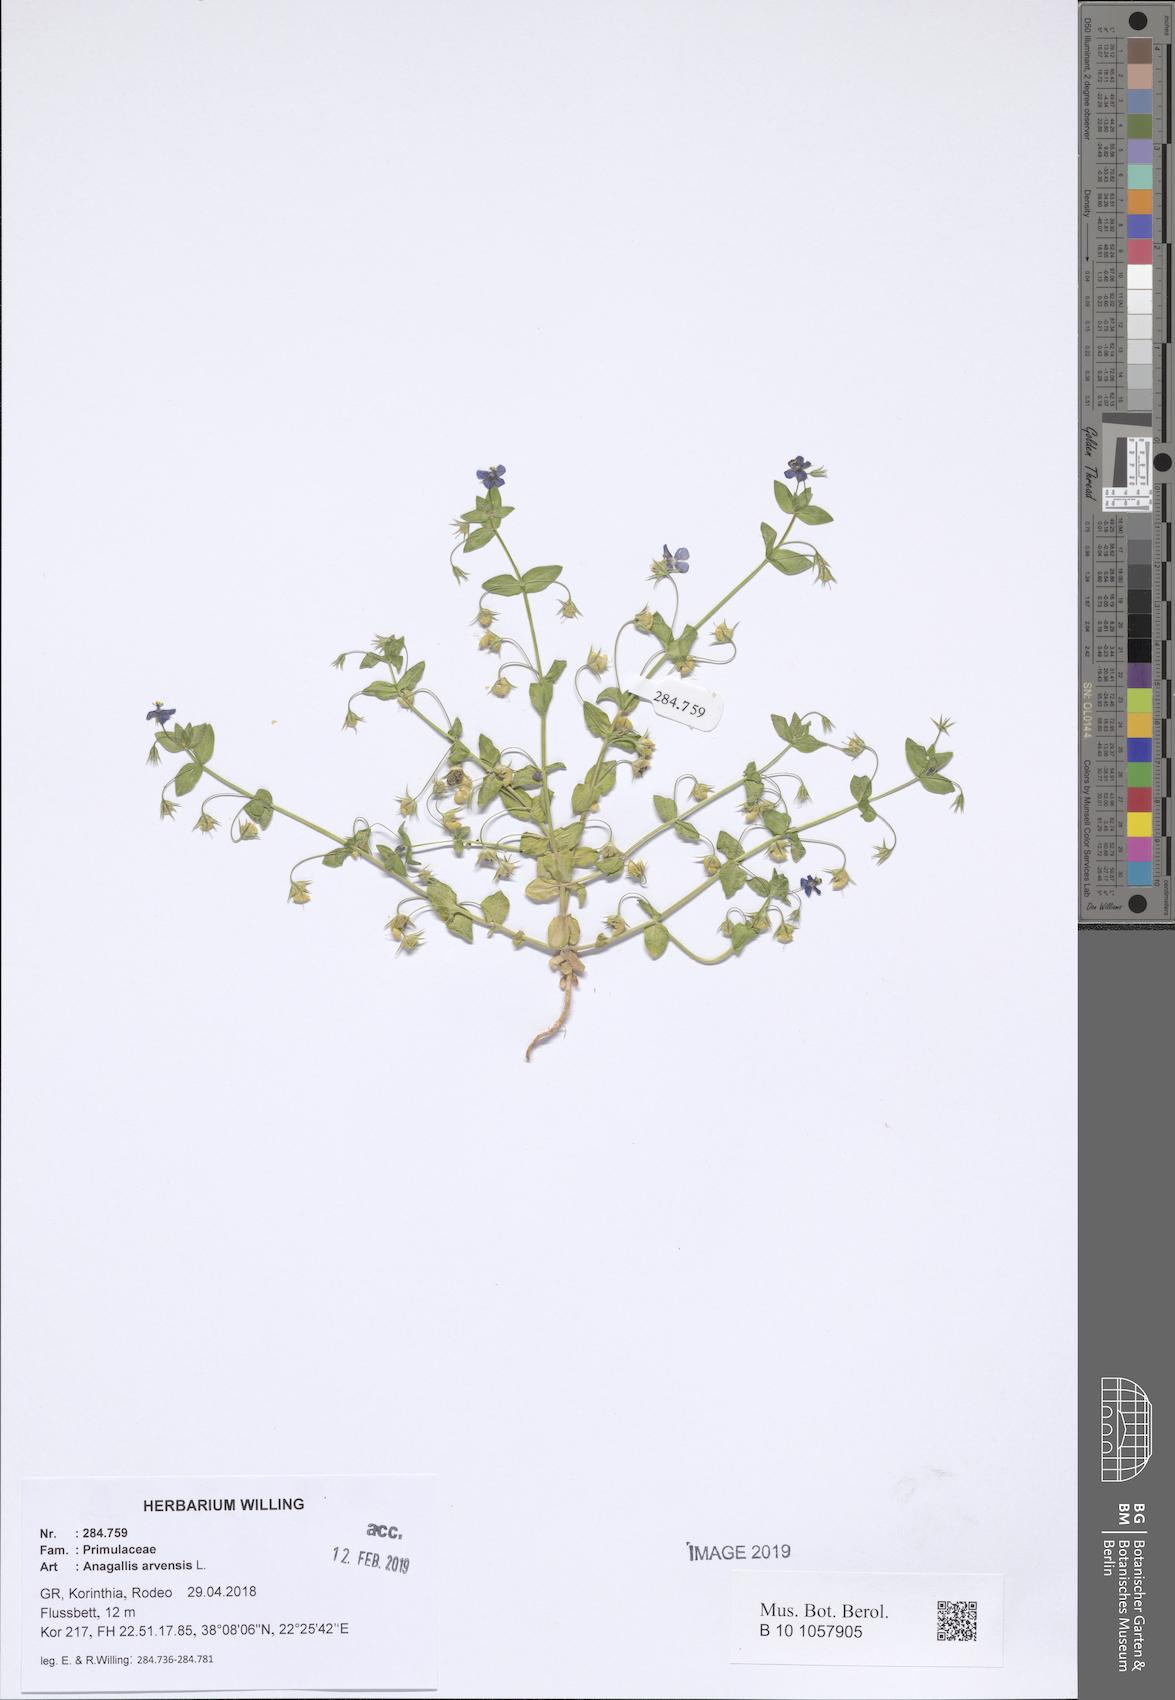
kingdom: Plantae
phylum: Tracheophyta
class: Magnoliopsida
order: Ericales
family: Primulaceae
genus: Lysimachia
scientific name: Lysimachia arvensis
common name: Scarlet pimpernel
